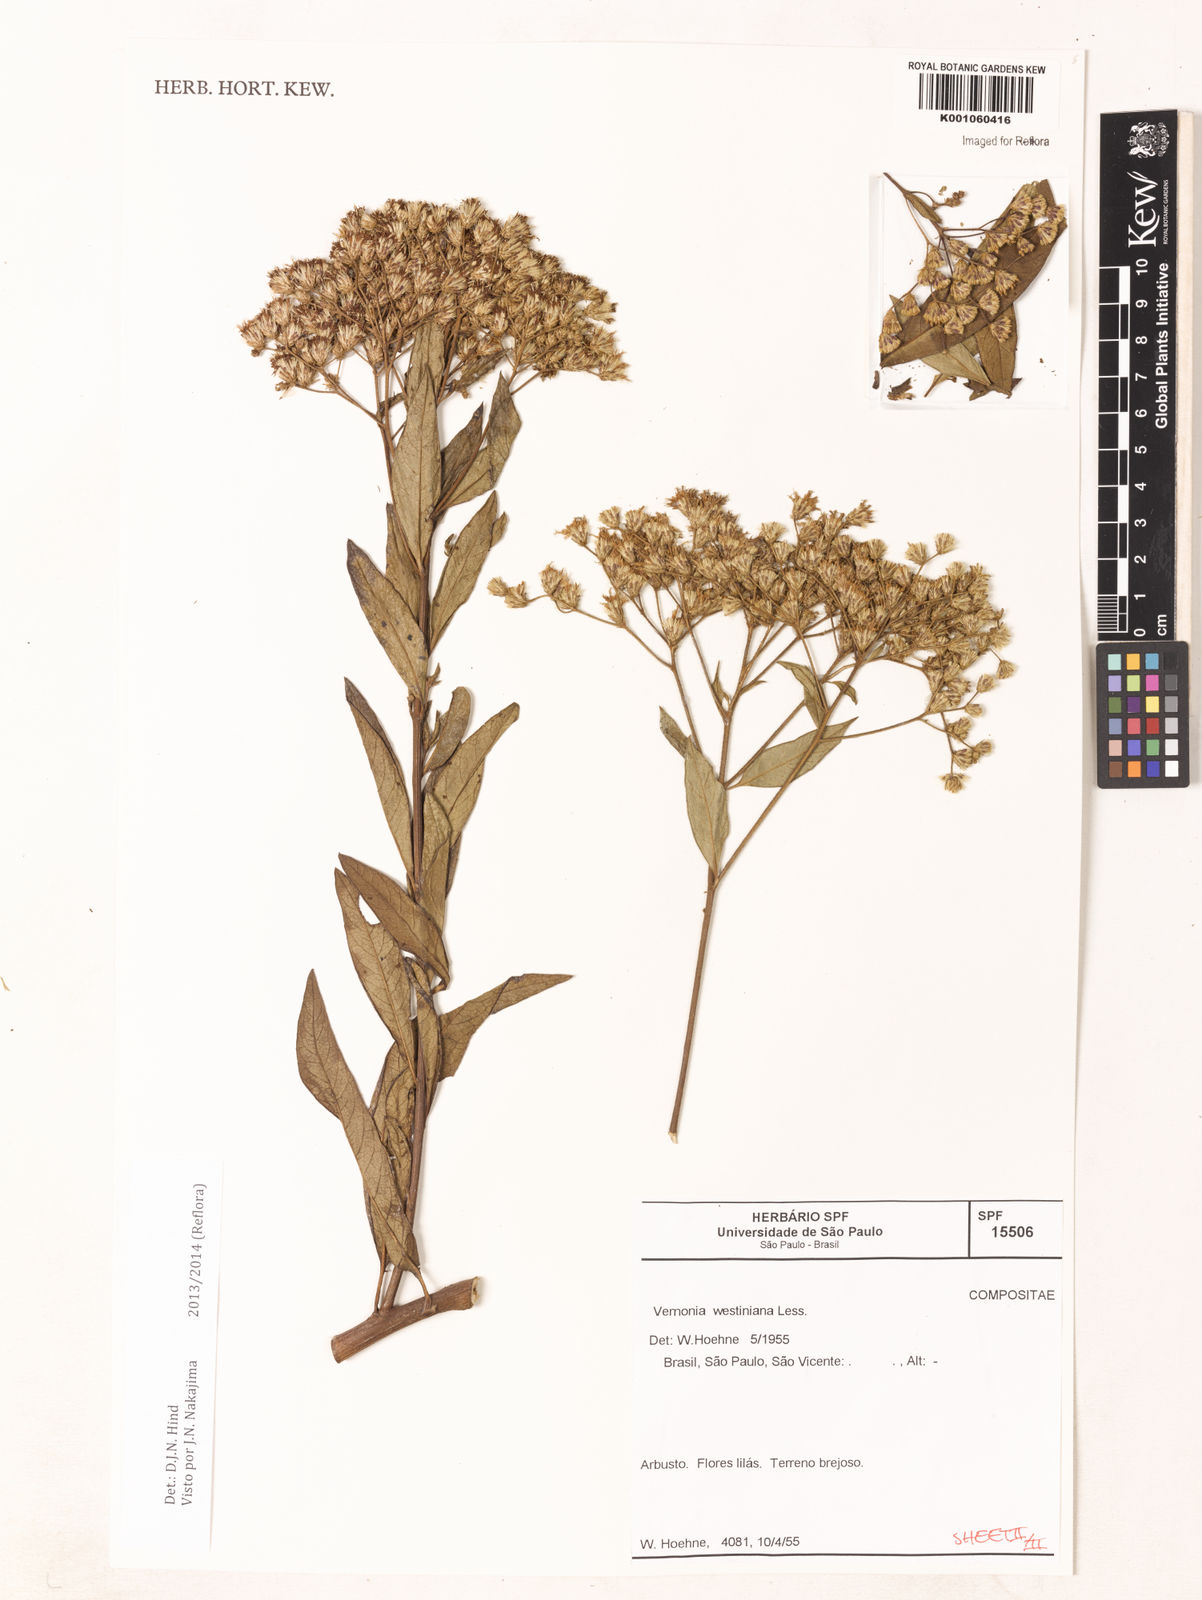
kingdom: Plantae
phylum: Tracheophyta
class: Magnoliopsida
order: Asterales
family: Asteraceae
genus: Vernonanthura
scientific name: Vernonanthura westiniana
